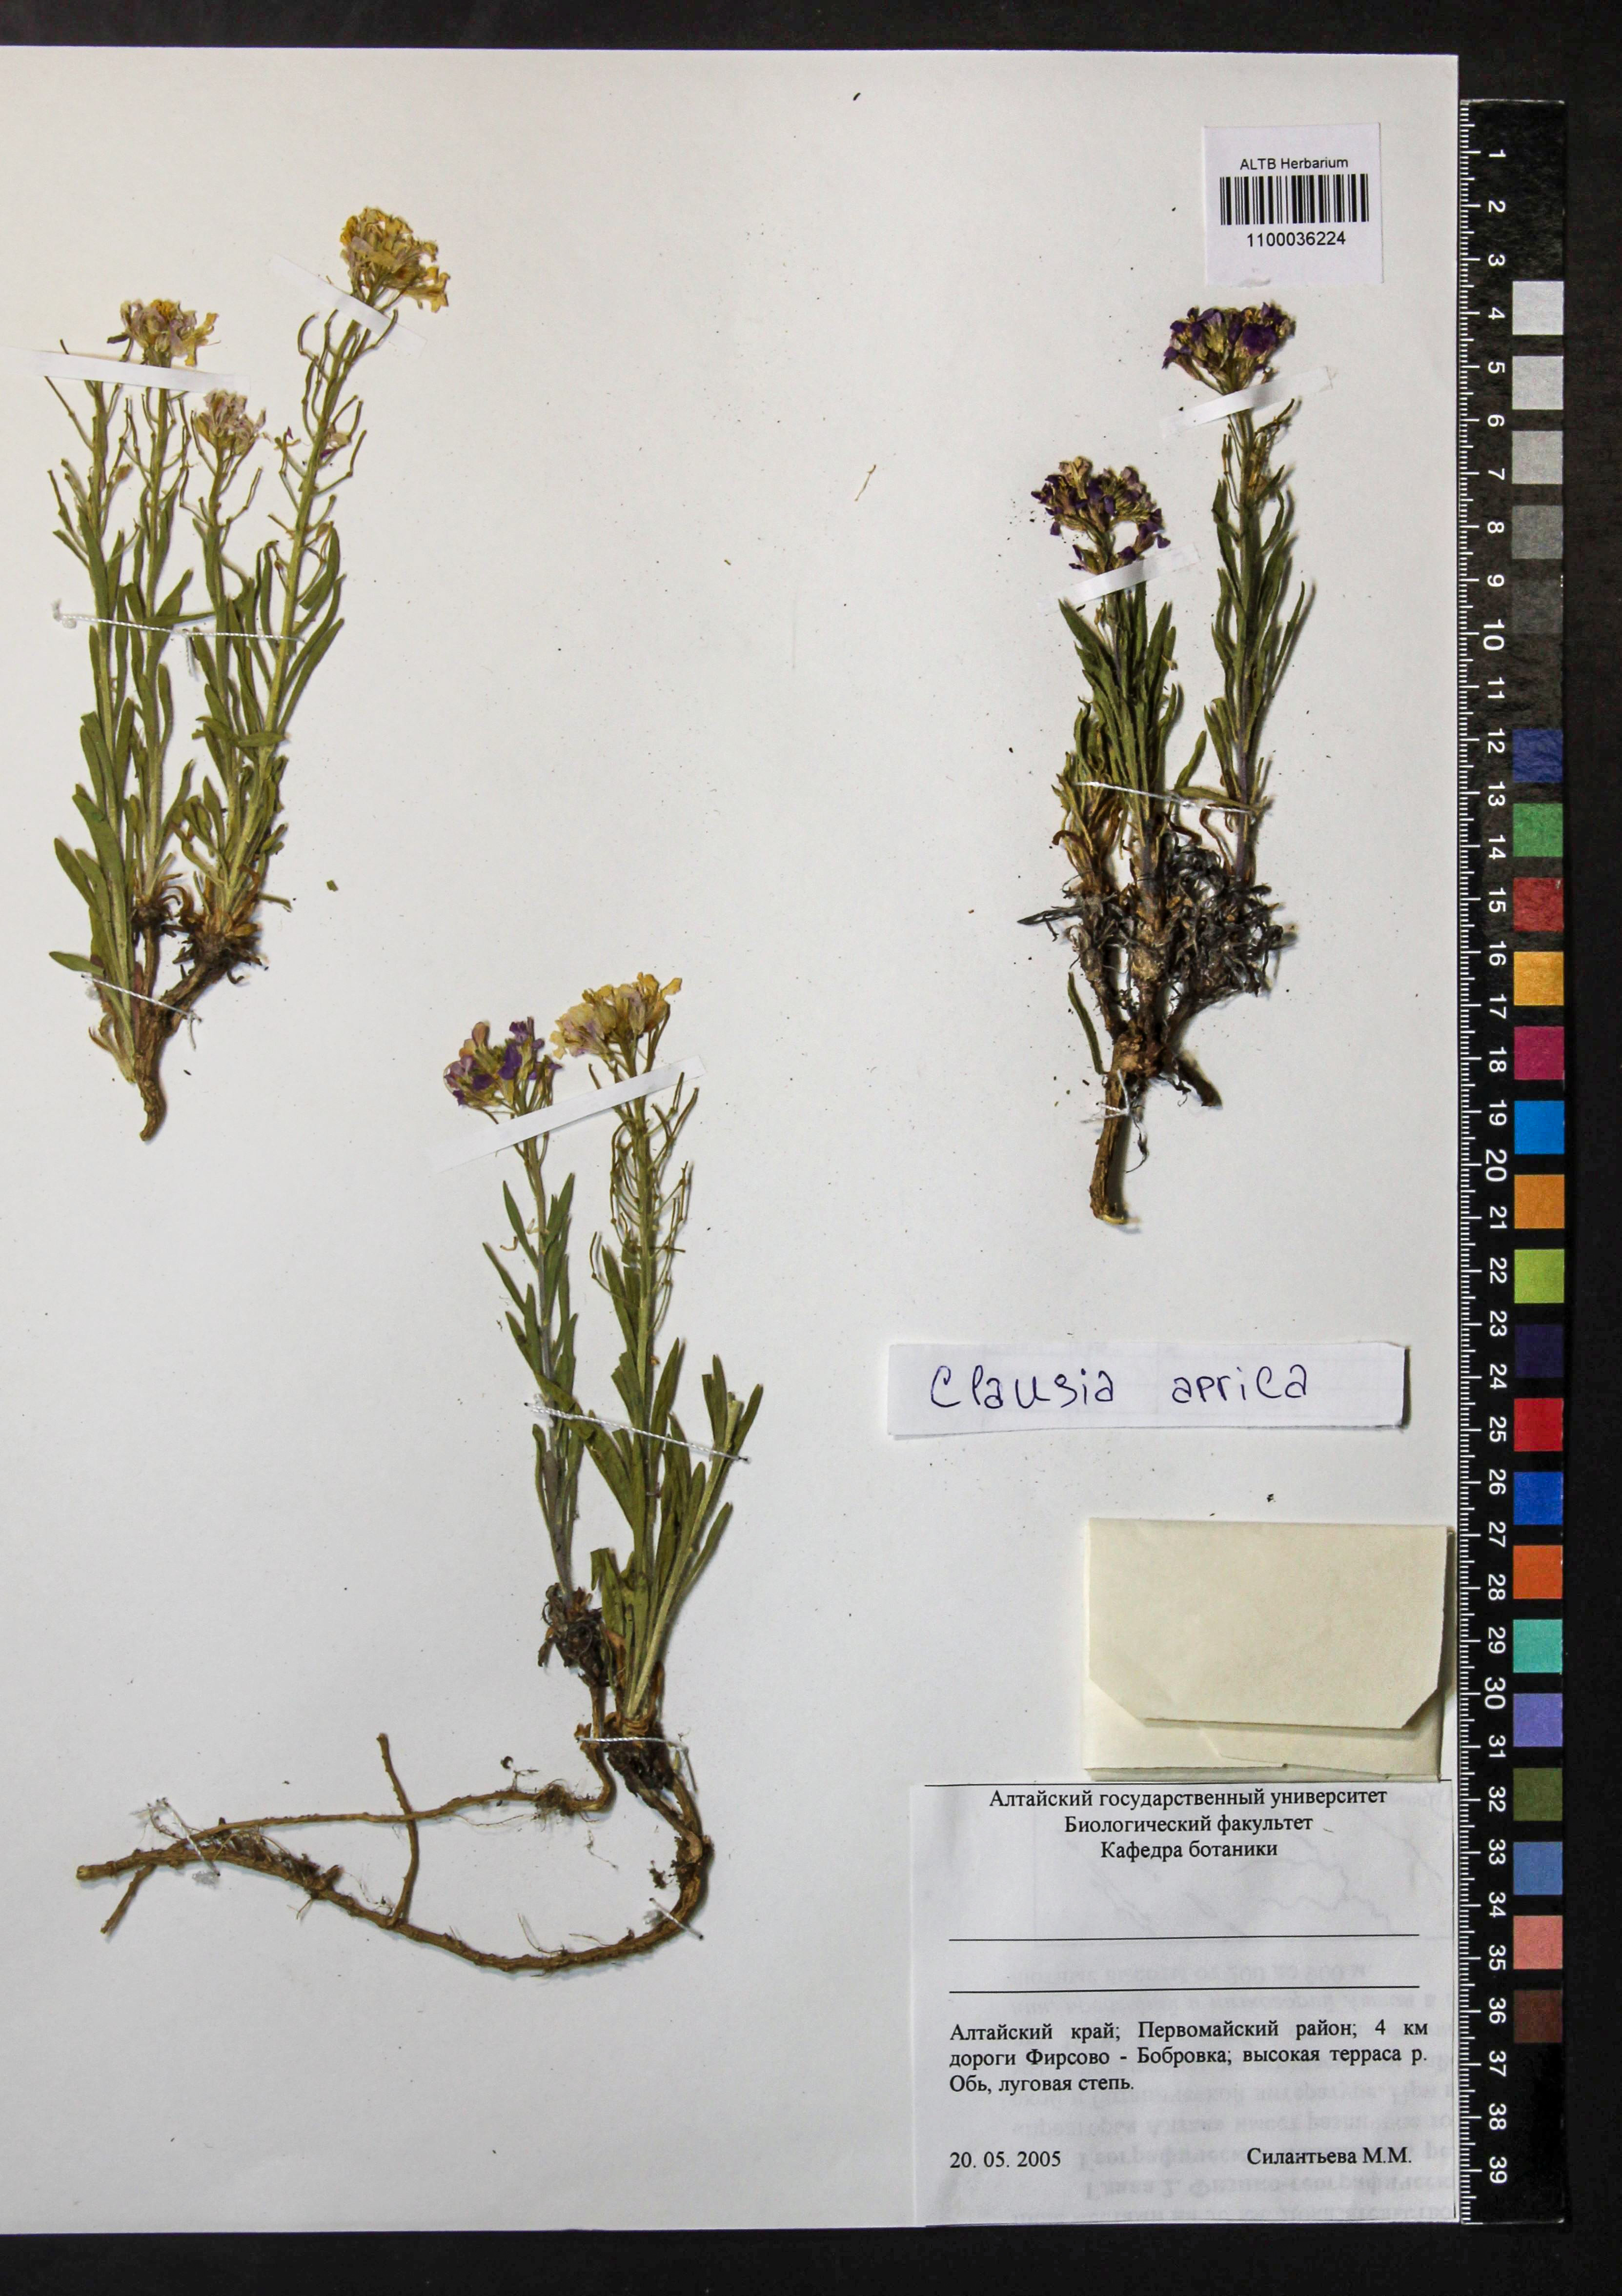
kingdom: Plantae
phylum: Tracheophyta
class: Magnoliopsida
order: Brassicales
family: Brassicaceae
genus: Clausia
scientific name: Clausia aprica
